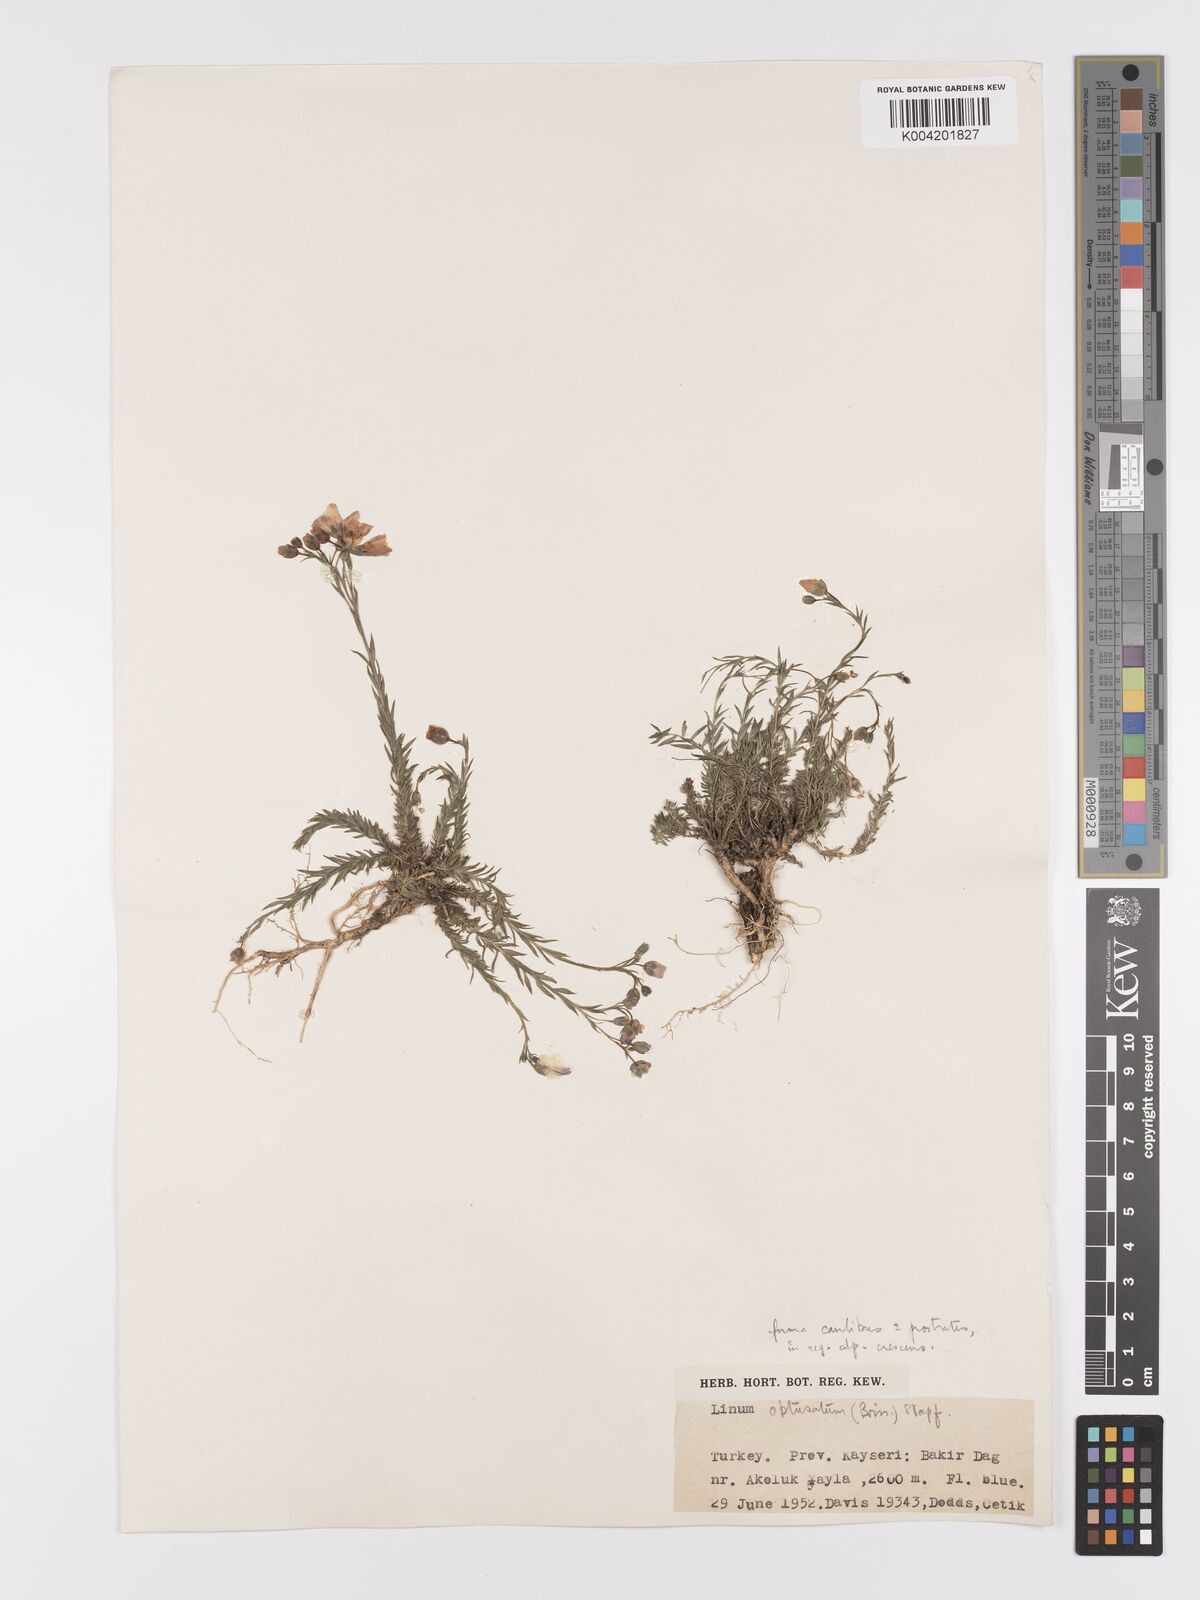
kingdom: Plantae
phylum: Tracheophyta
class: Magnoliopsida
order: Malpighiales
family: Linaceae
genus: Linum
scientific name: Linum obtusatum
